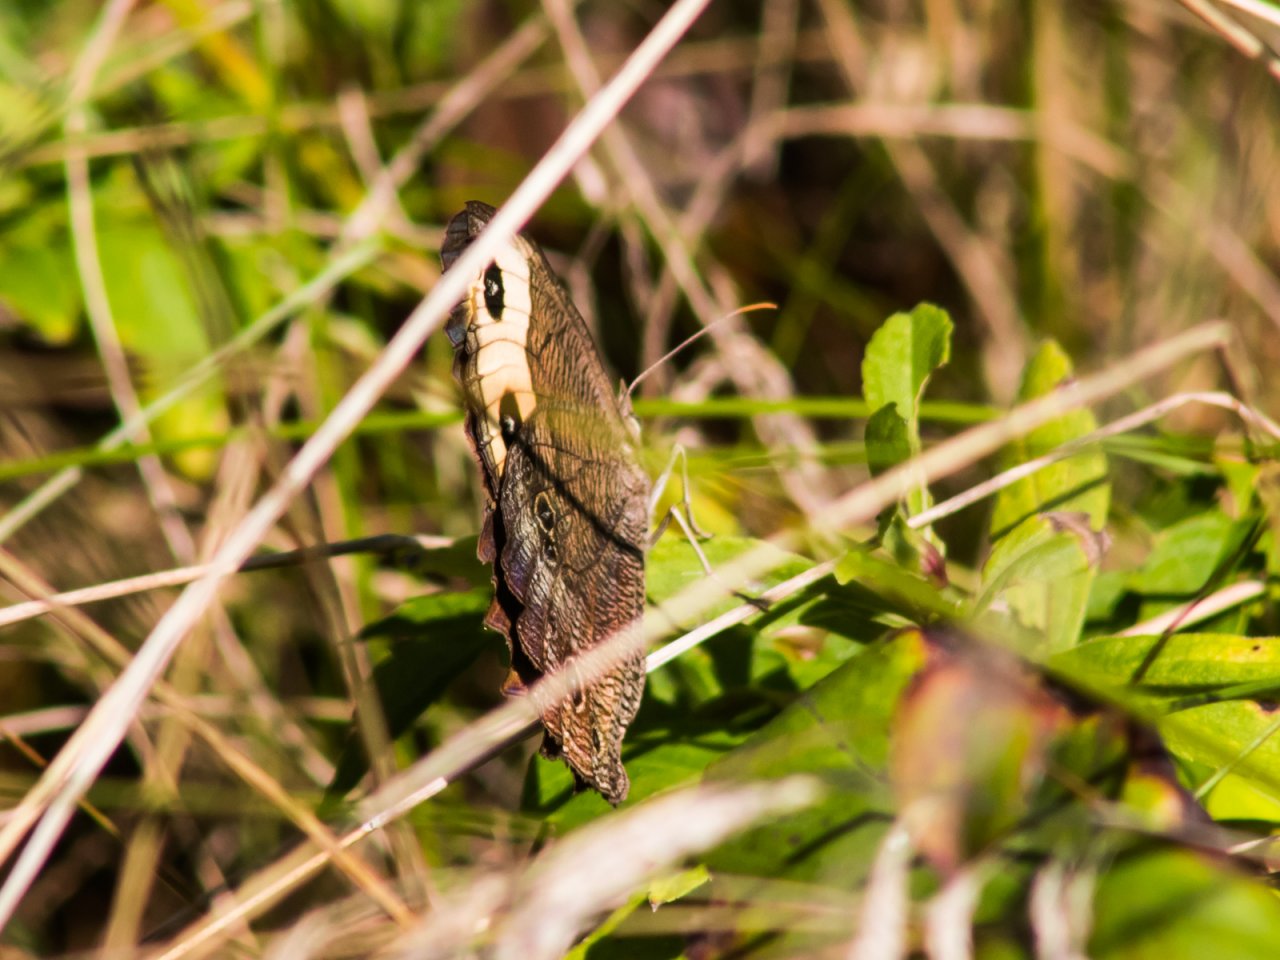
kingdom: Animalia
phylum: Arthropoda
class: Insecta
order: Lepidoptera
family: Nymphalidae
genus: Cercyonis
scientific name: Cercyonis pegala
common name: Common Wood-Nymph
